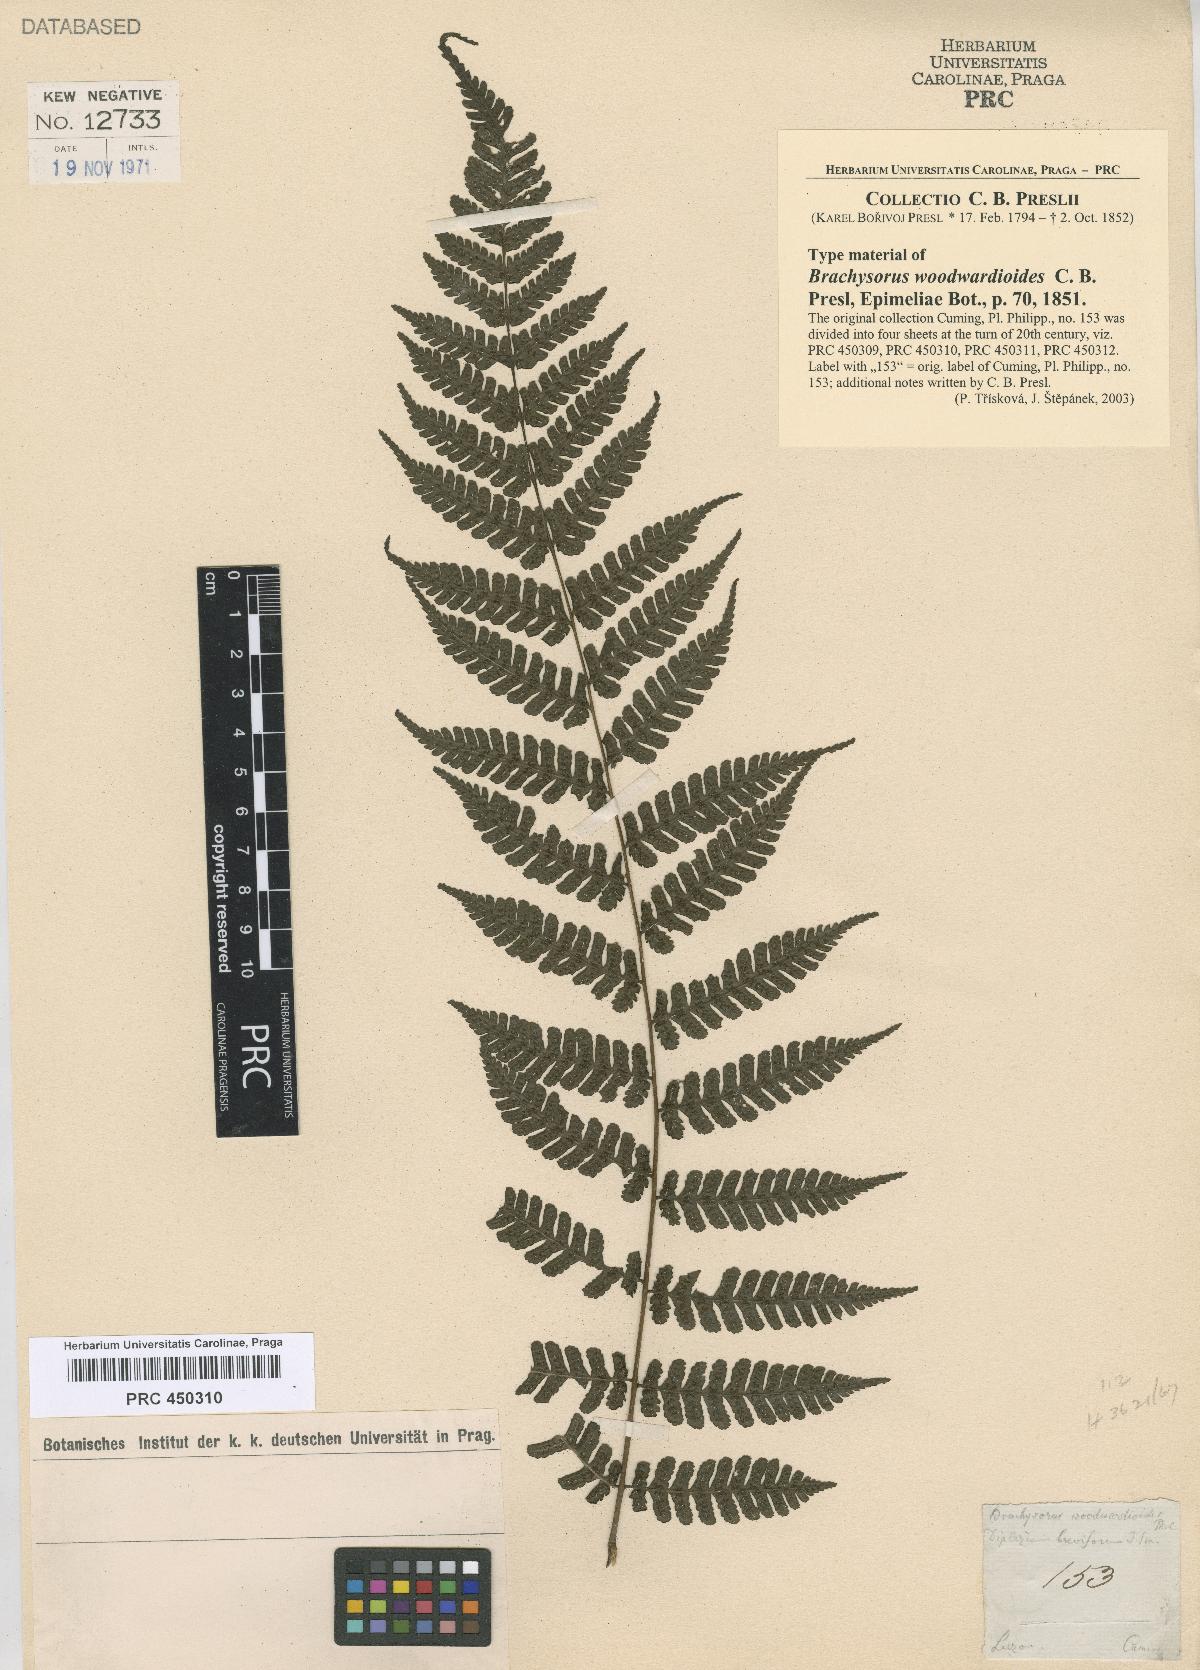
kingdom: Plantae
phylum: Tracheophyta
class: Polypodiopsida
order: Polypodiales
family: Athyriaceae
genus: Diplazium
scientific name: Diplazium woodwardioides
